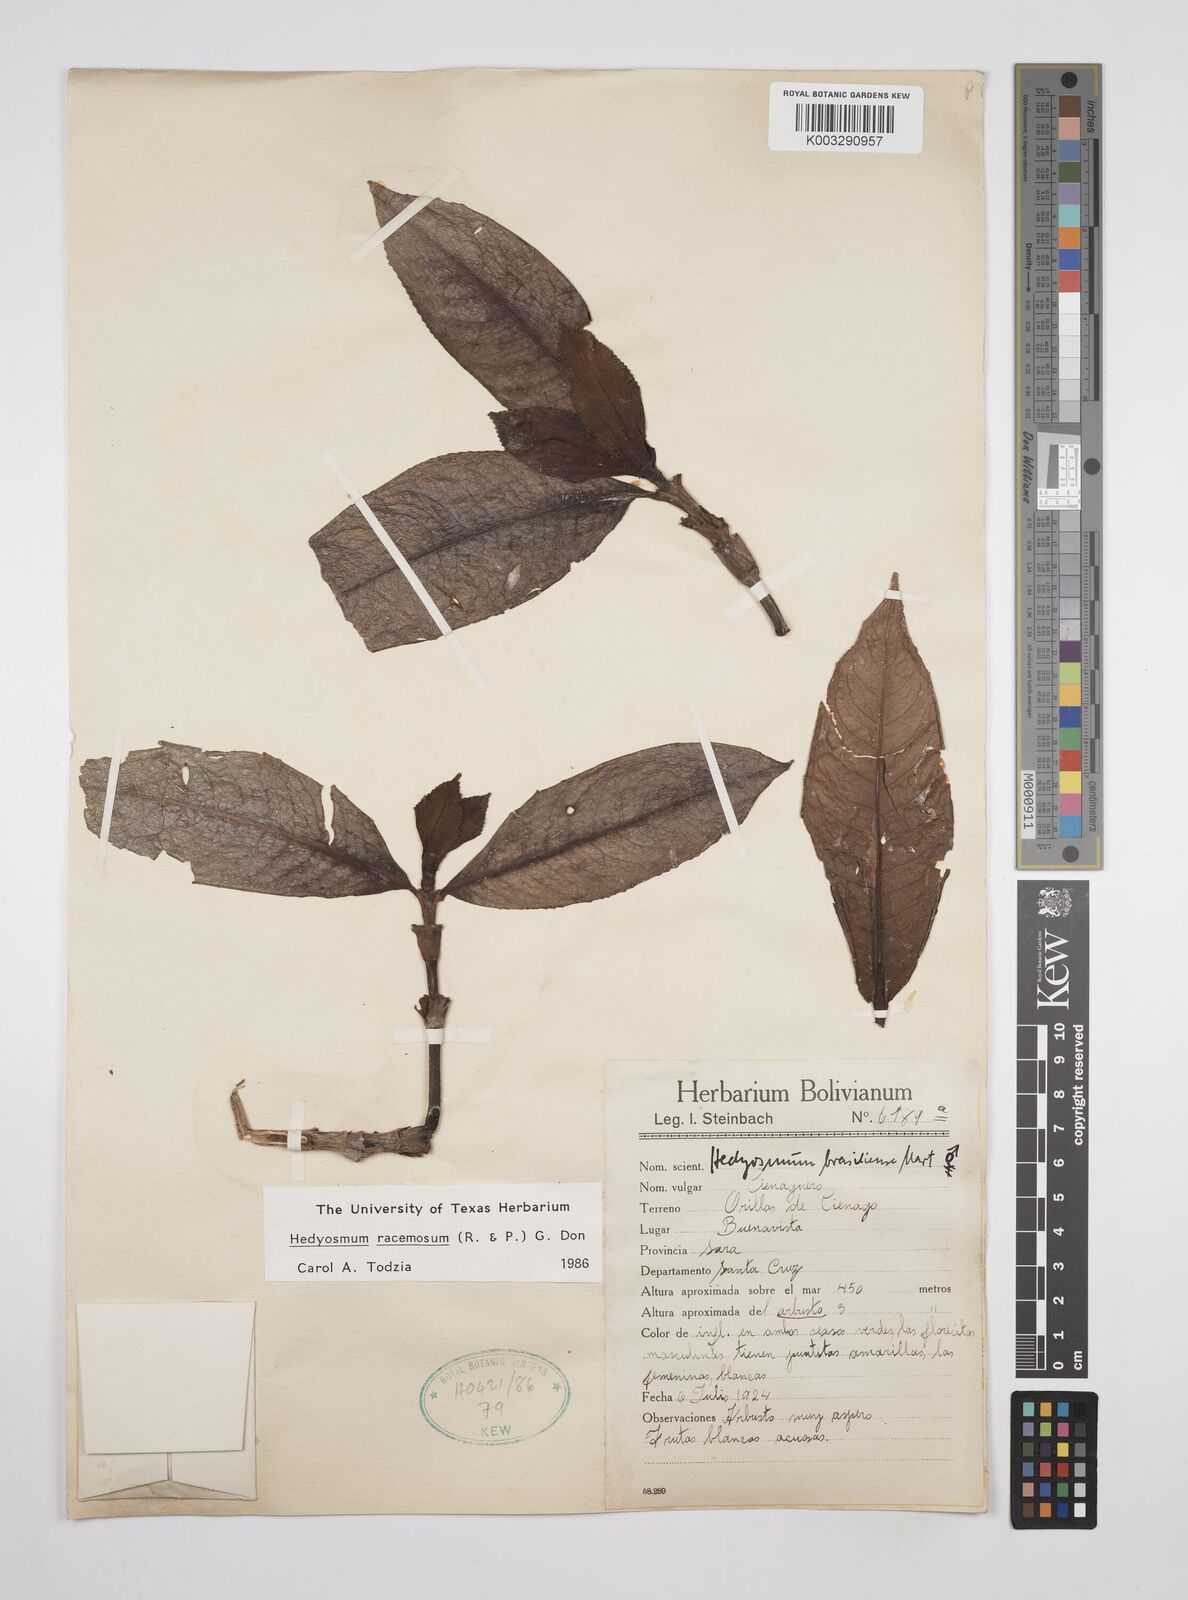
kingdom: Plantae
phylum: Tracheophyta
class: Magnoliopsida
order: Chloranthales
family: Chloranthaceae
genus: Hedyosmum
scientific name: Hedyosmum racemosum
